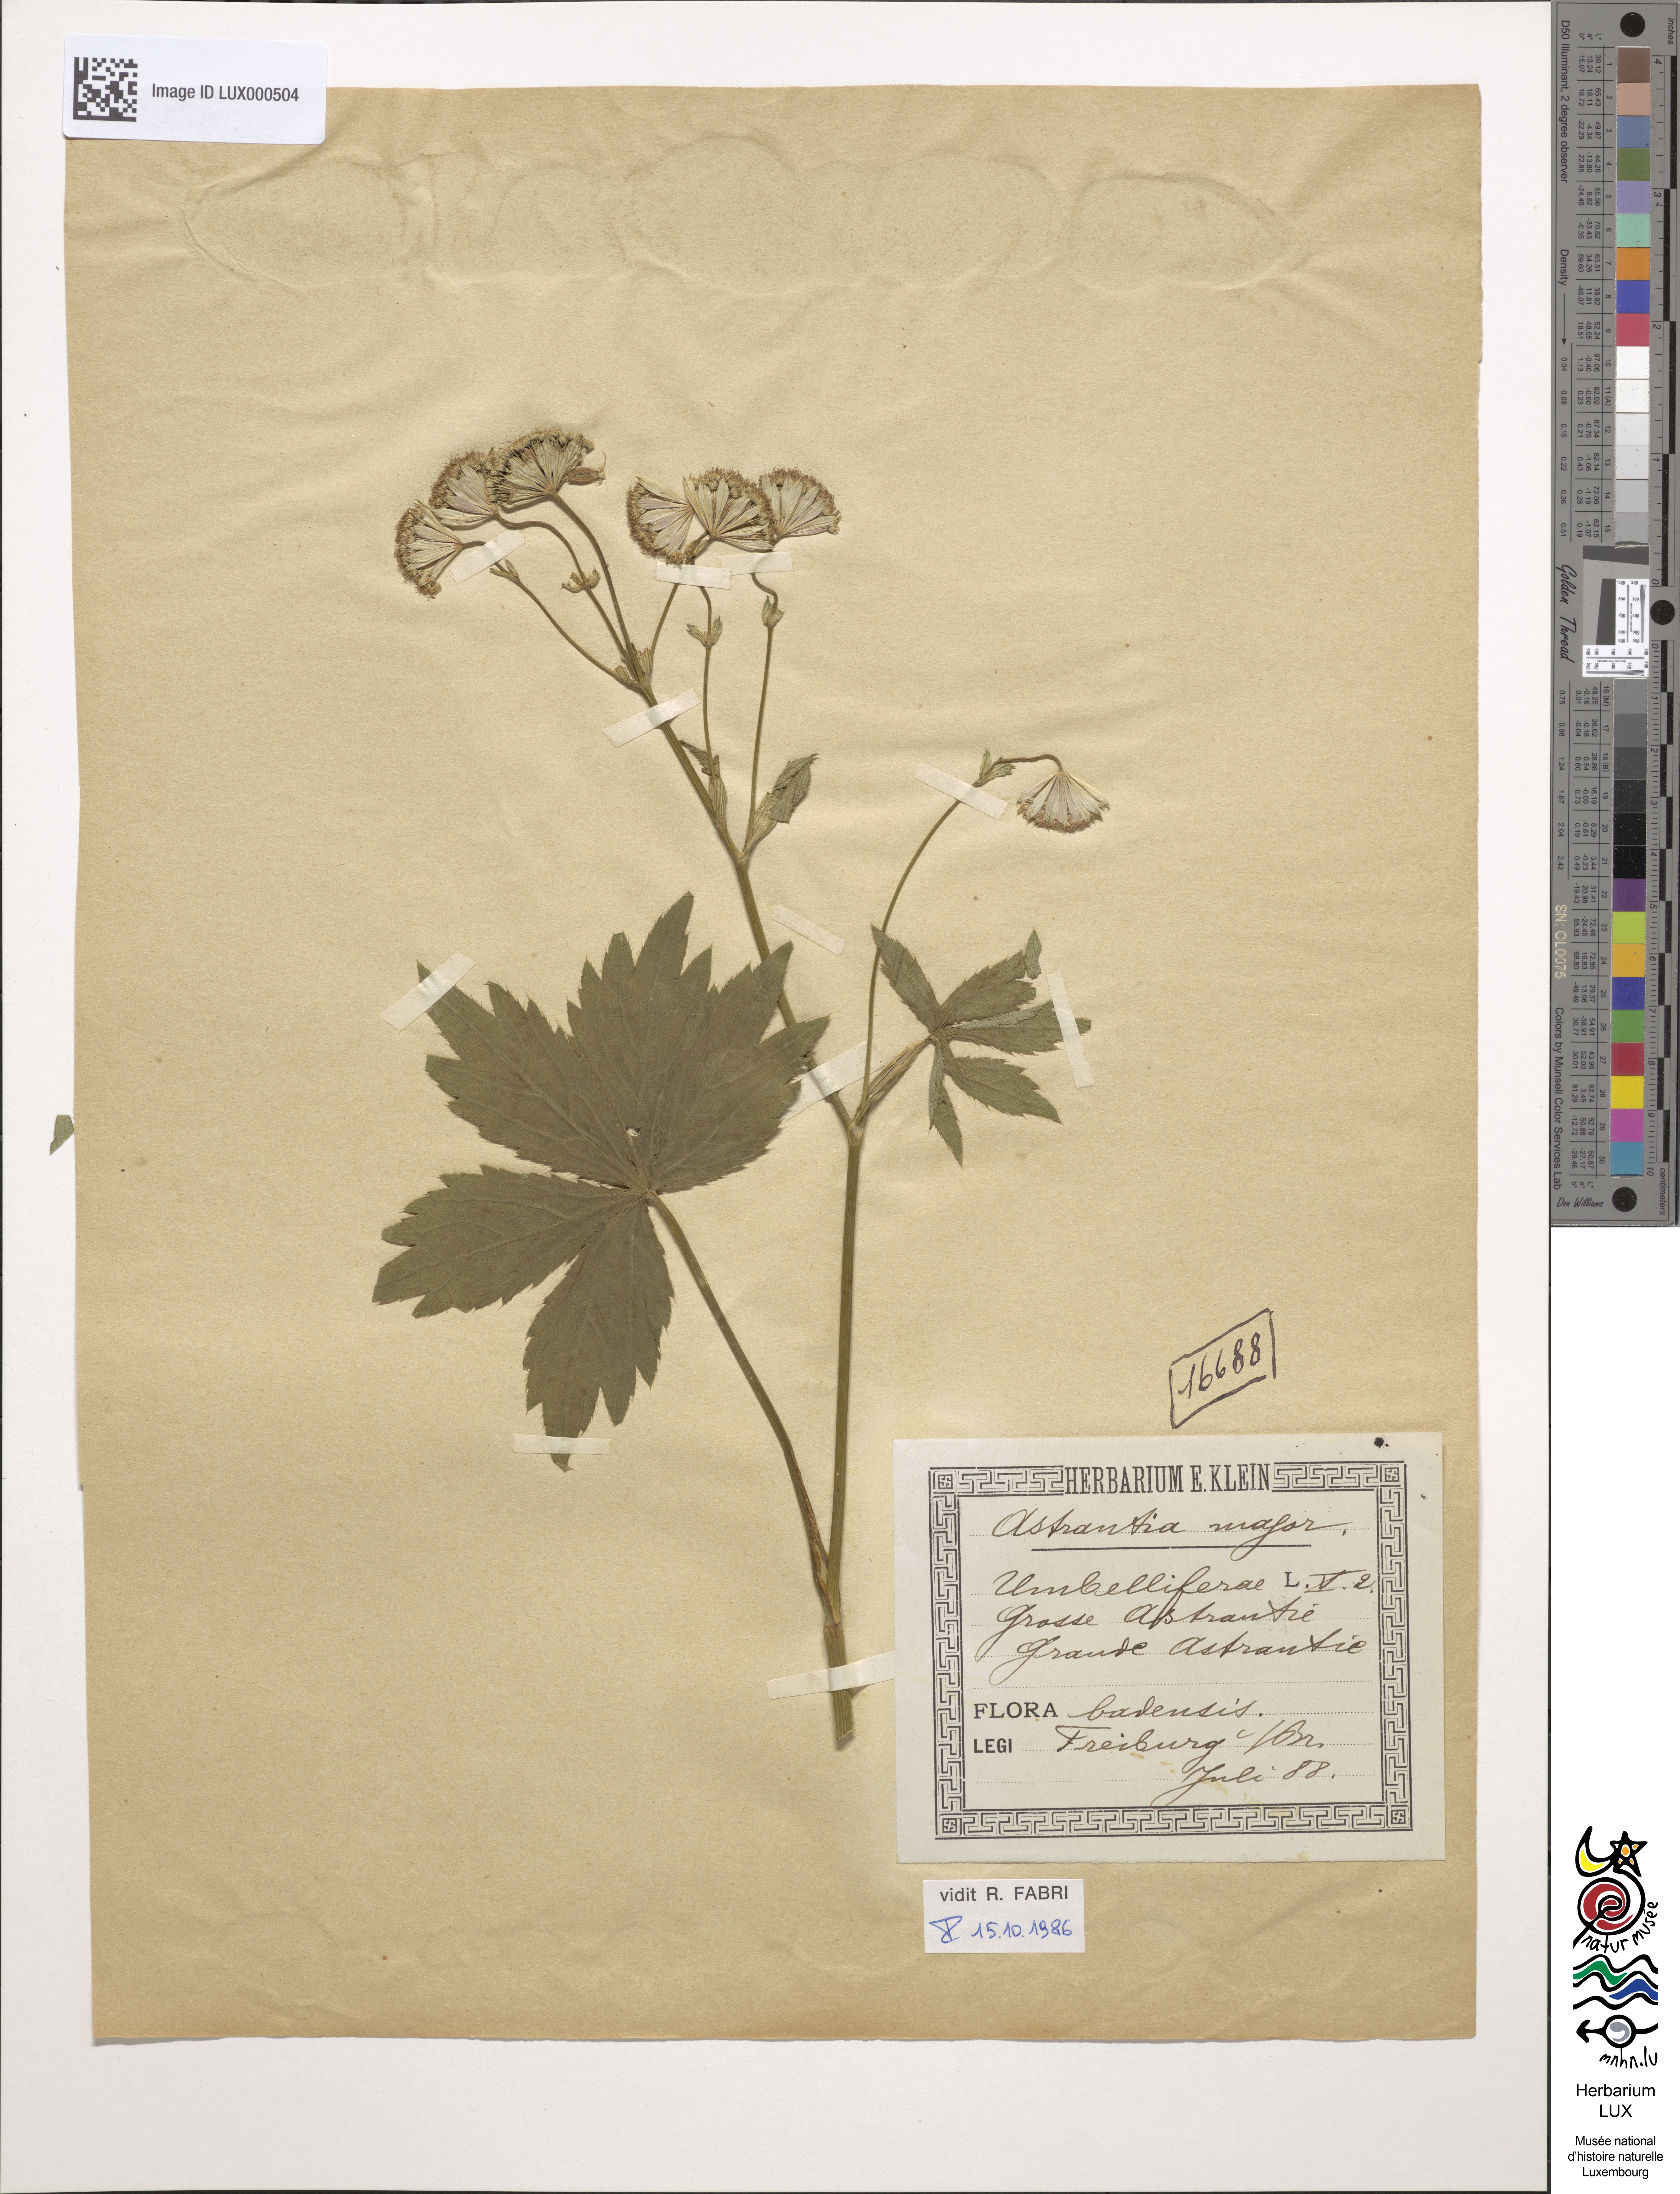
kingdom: Plantae
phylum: Tracheophyta
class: Magnoliopsida
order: Apiales
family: Apiaceae
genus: Astrantia
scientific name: Astrantia major
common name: Greater masterwort
